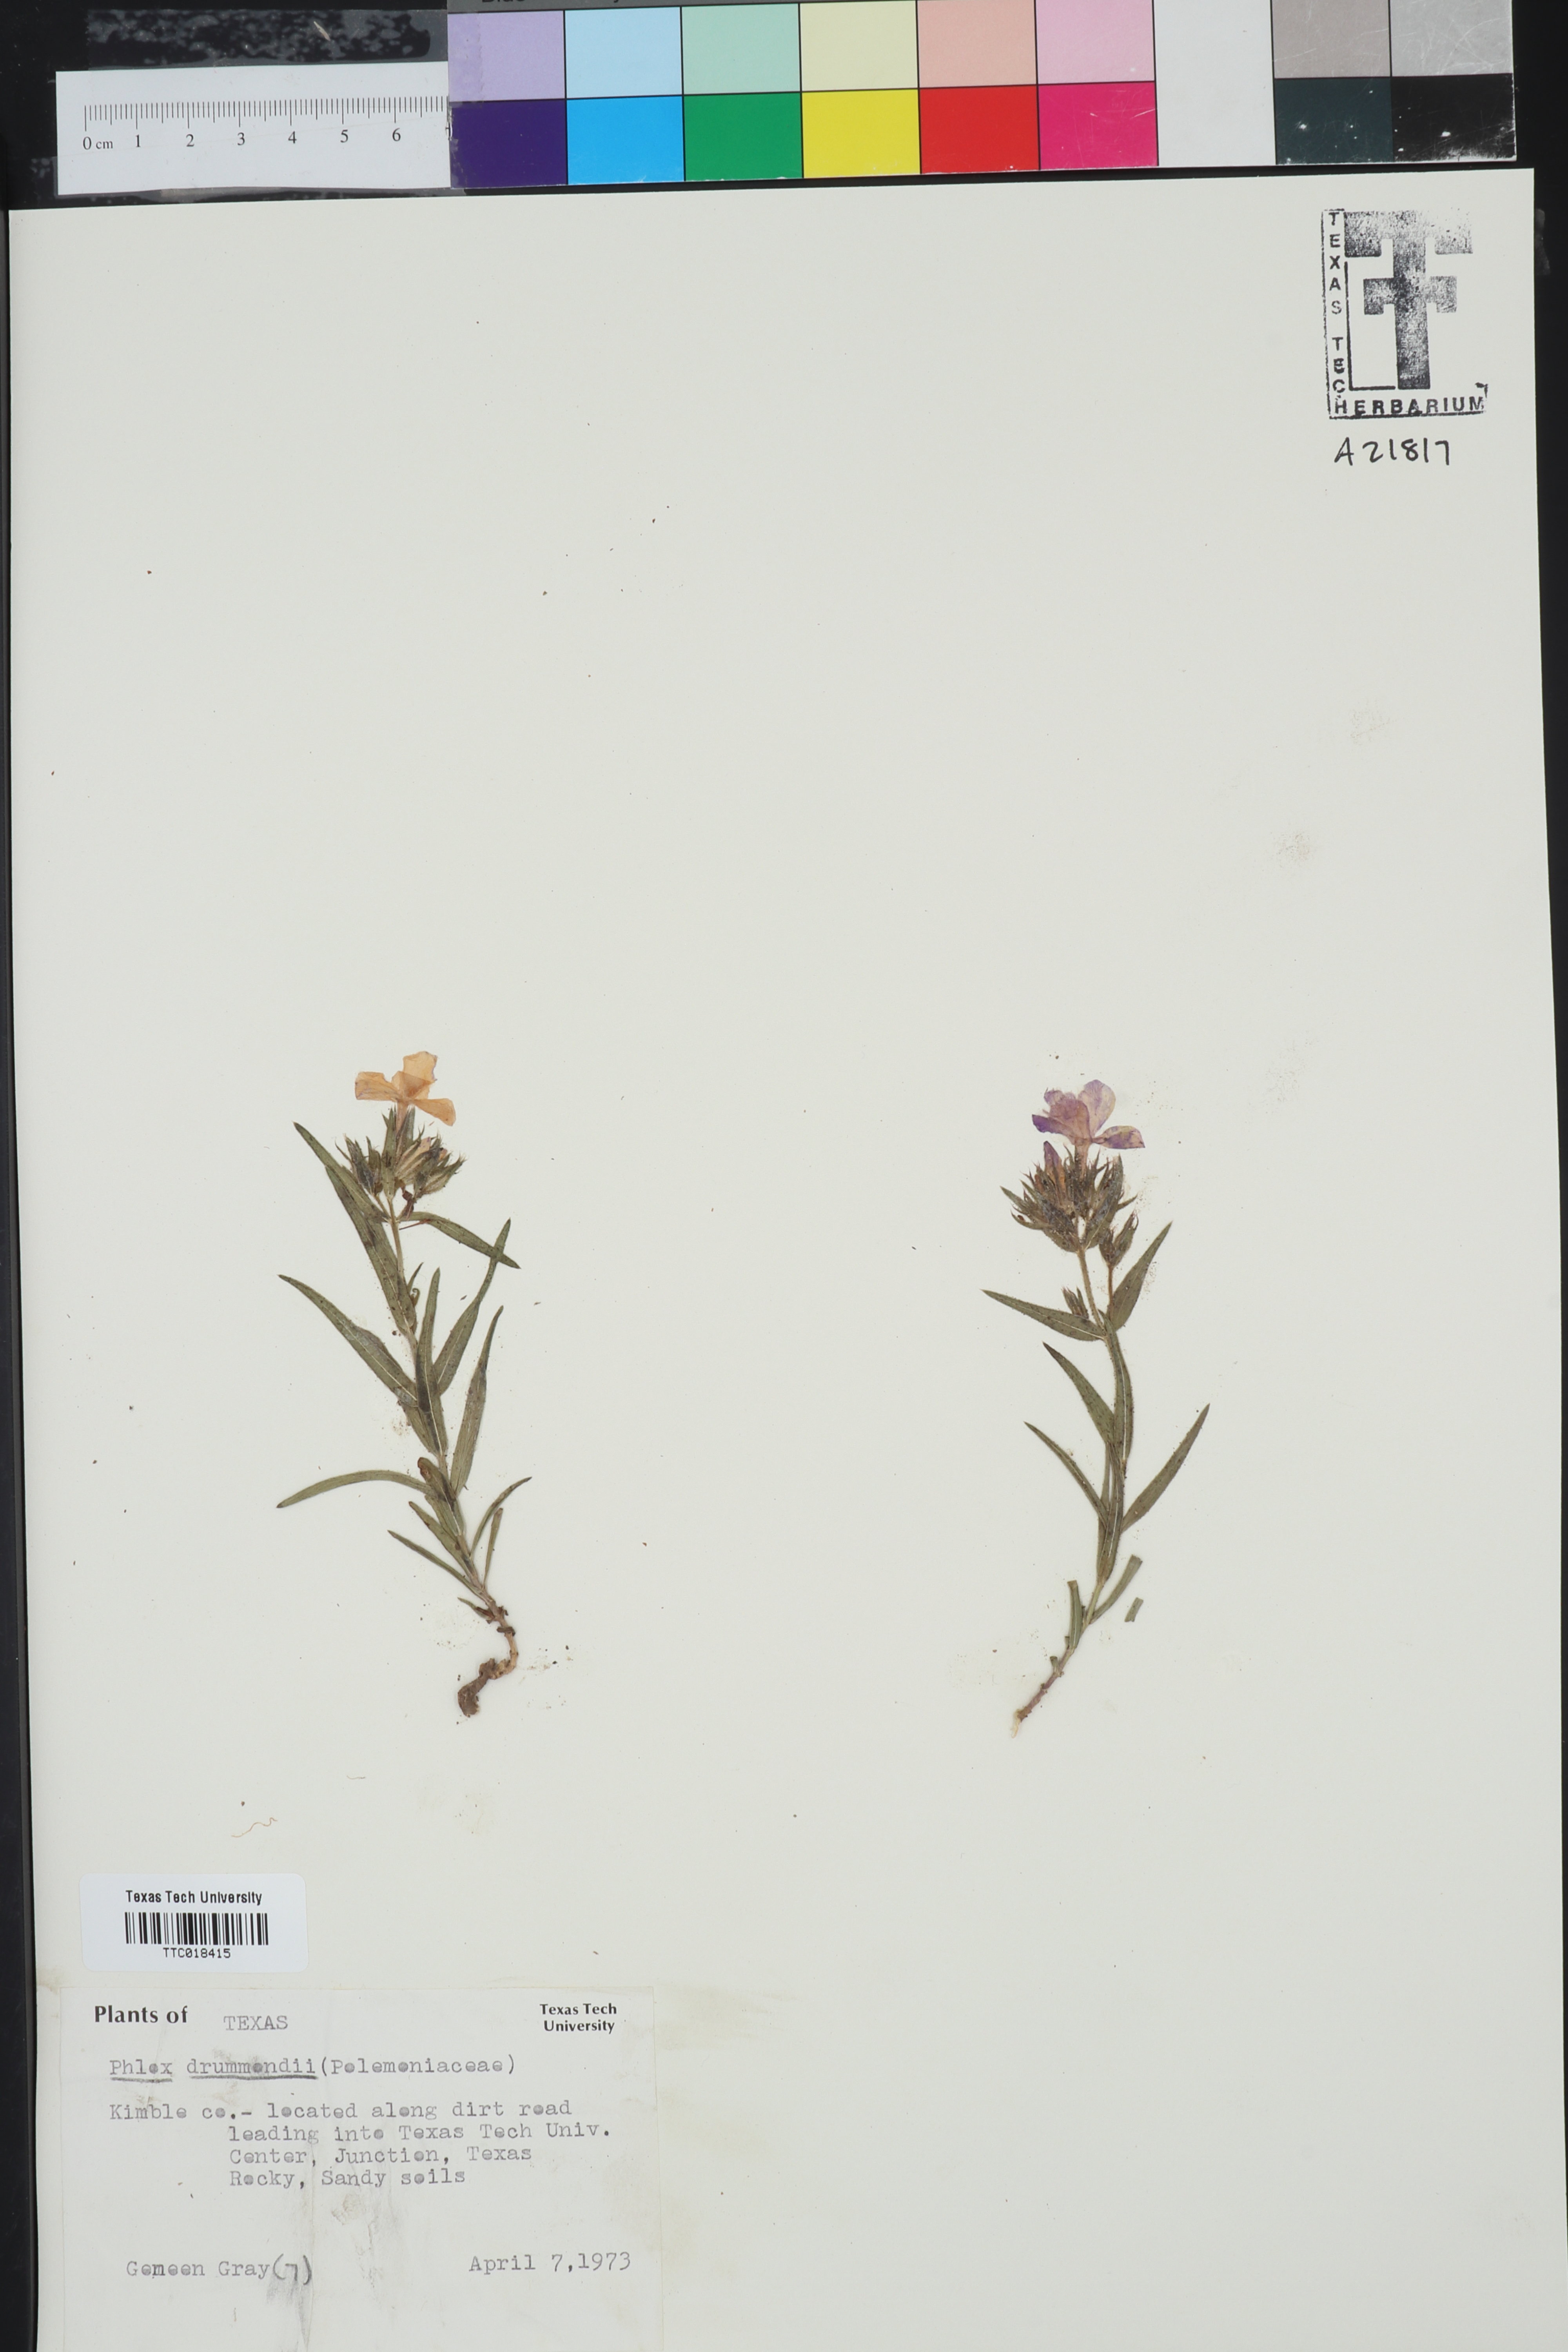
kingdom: Plantae
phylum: Tracheophyta
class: Magnoliopsida
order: Ericales
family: Polemoniaceae
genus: Phlox
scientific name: Phlox drummondii
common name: Drummond's phlox
